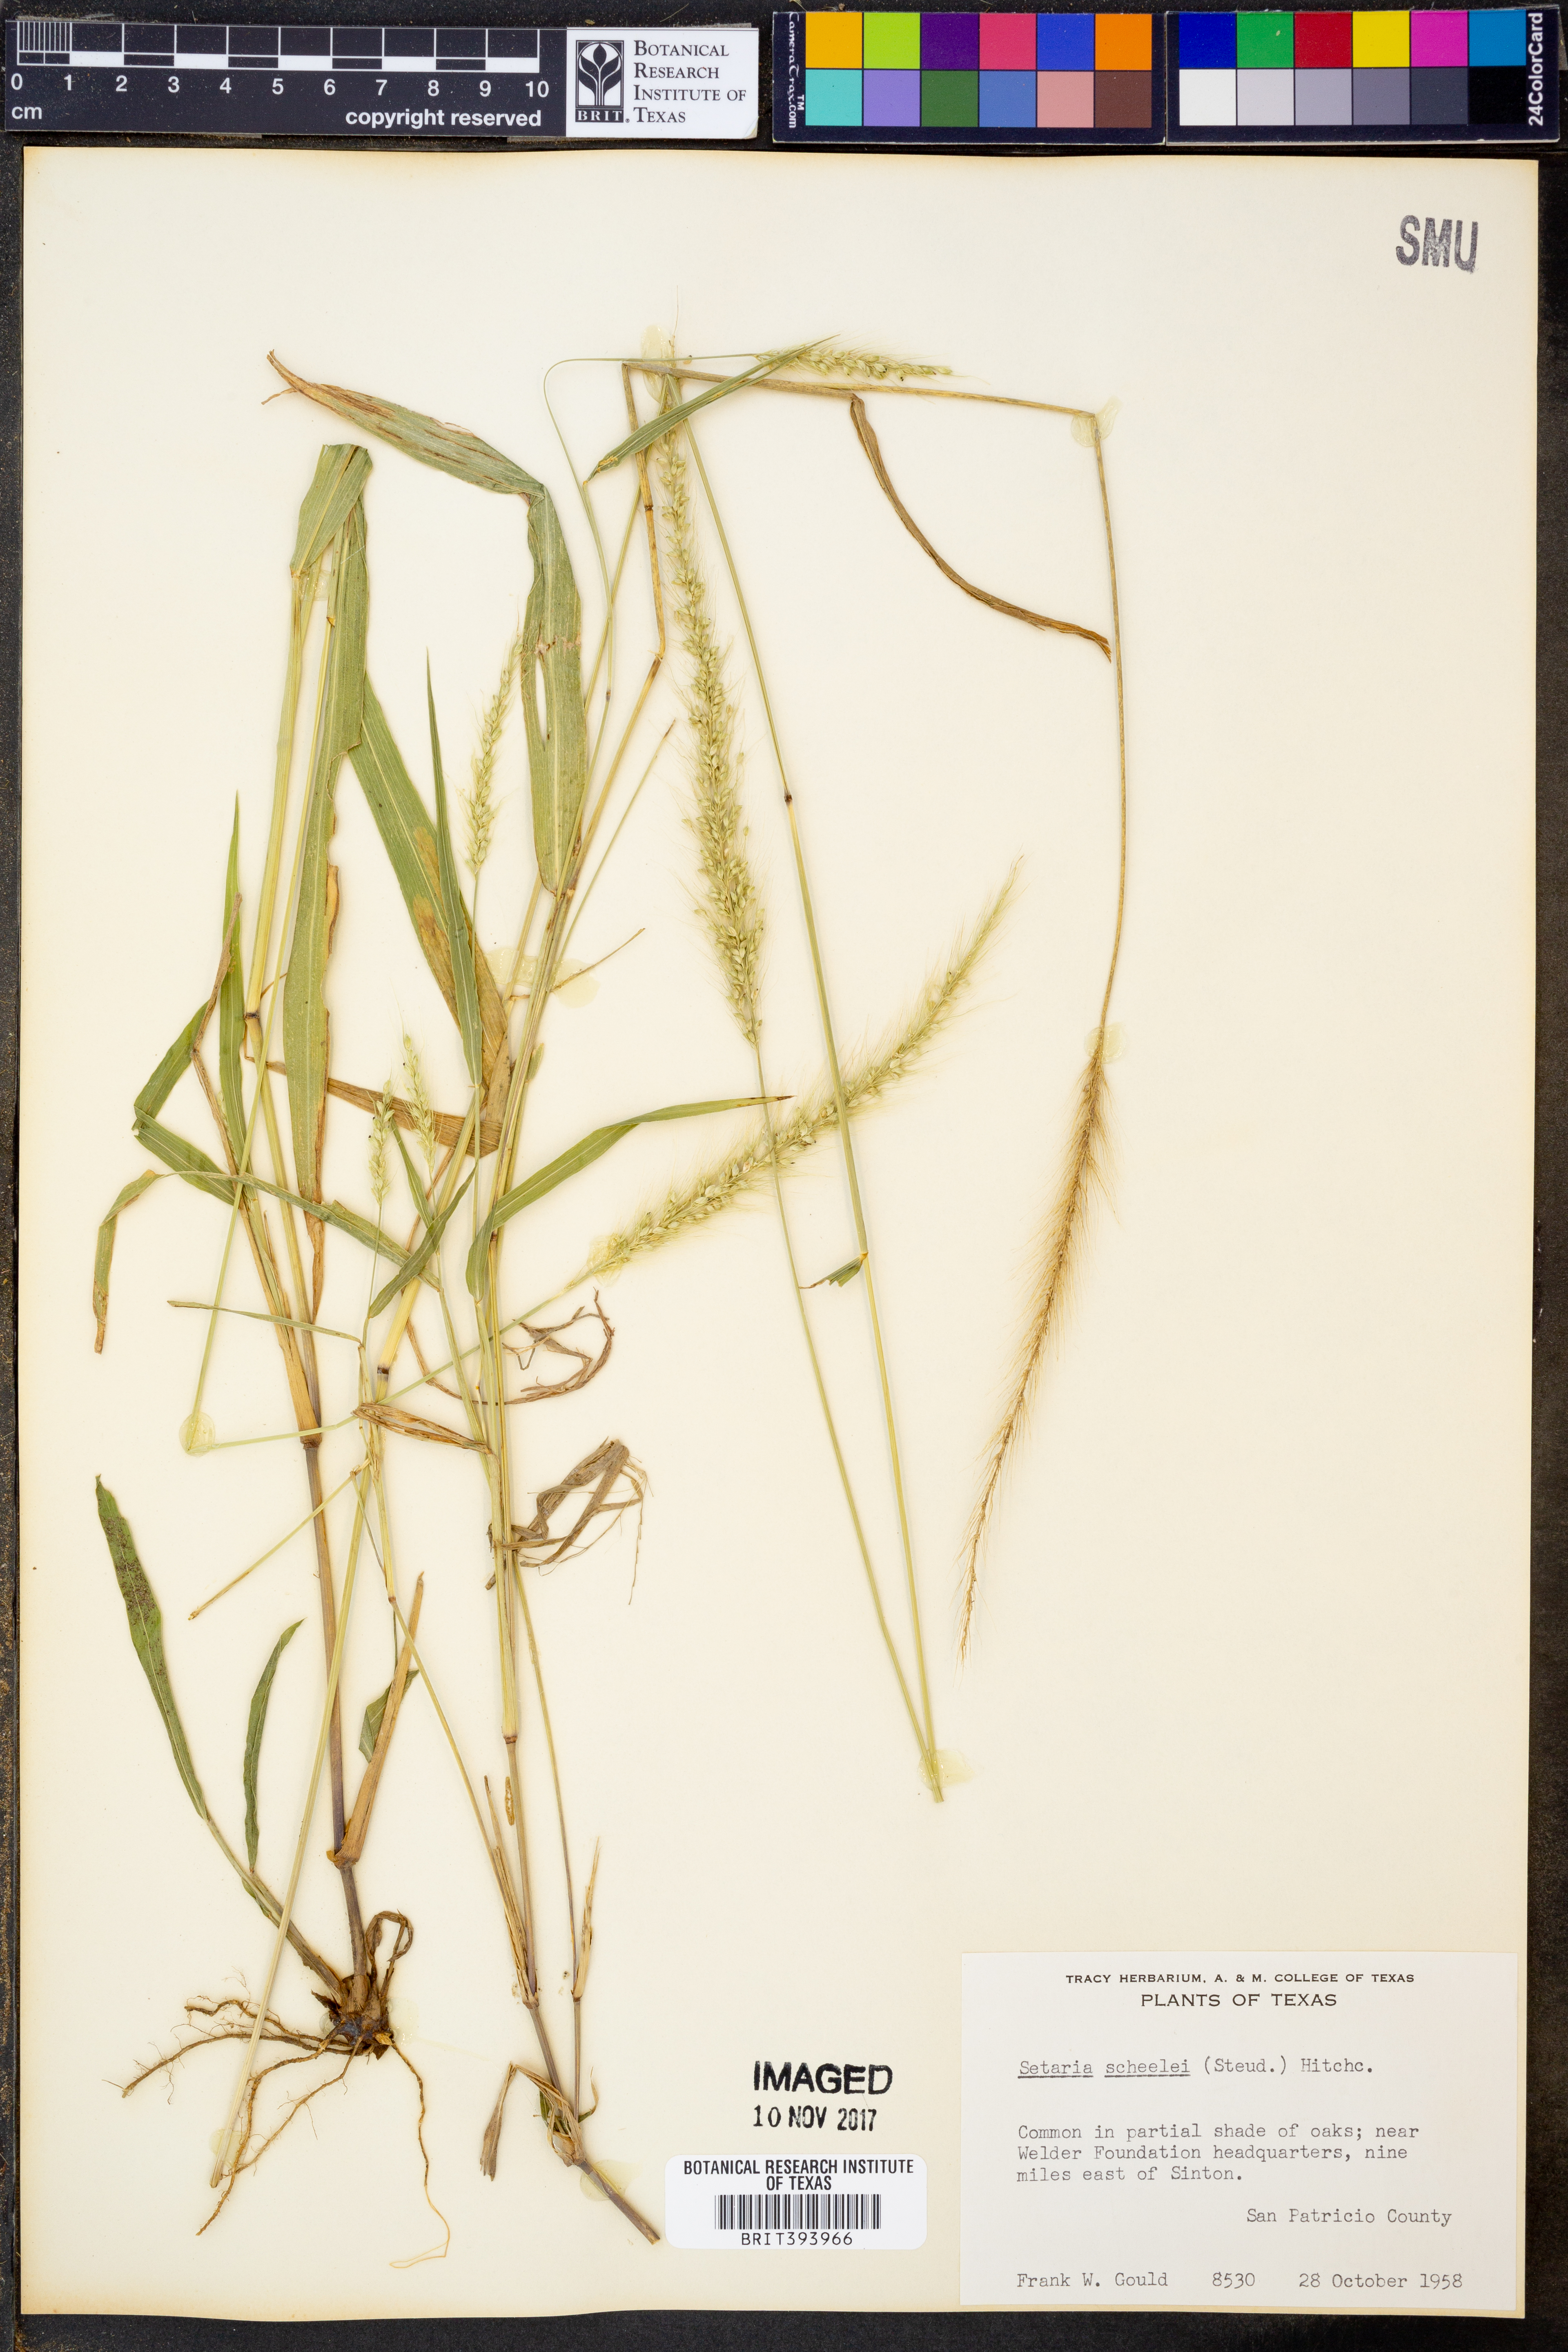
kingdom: Plantae
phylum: Tracheophyta
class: Liliopsida
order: Poales
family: Poaceae
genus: Setaria
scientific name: Setaria scheelei
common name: Southwestern bristle grass
